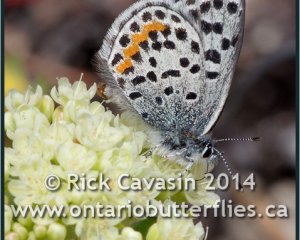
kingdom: Animalia
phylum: Arthropoda
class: Insecta
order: Lepidoptera
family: Lycaenidae
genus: Euphilotes
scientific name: Euphilotes enoptes
